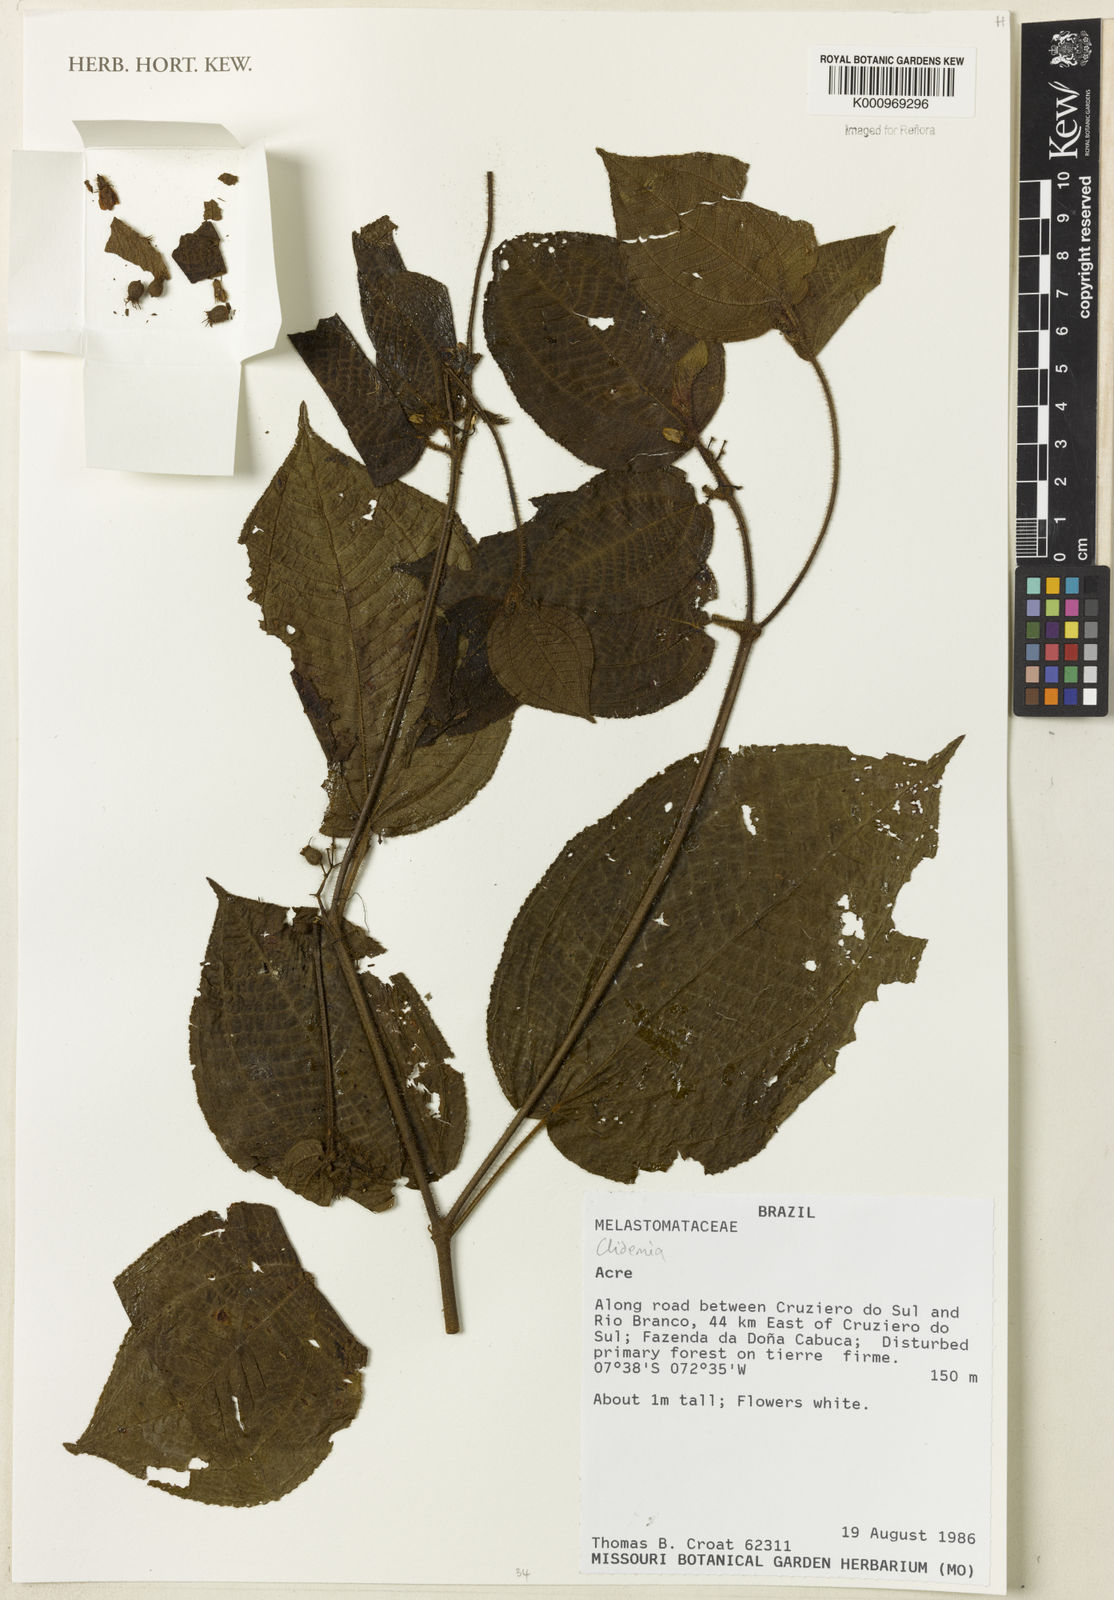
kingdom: Plantae
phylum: Tracheophyta
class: Magnoliopsida
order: Myrtales
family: Melastomataceae
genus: Miconia
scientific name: Miconia
